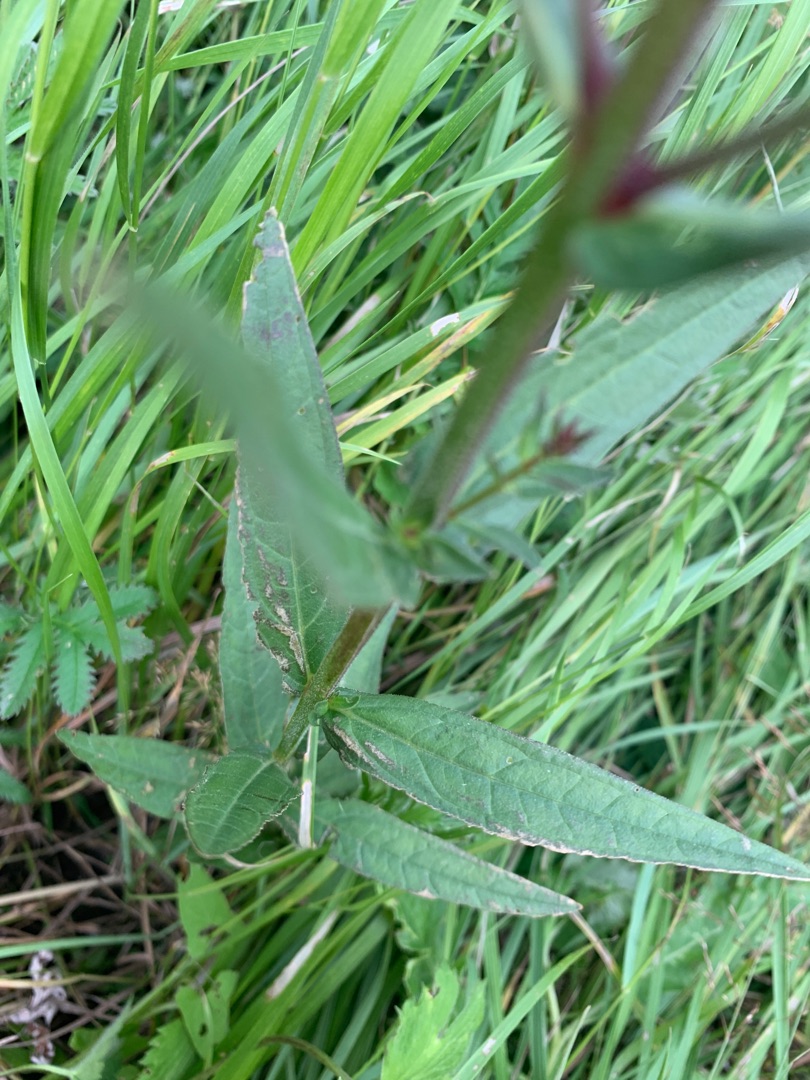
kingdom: Plantae
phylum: Tracheophyta
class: Magnoliopsida
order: Myrtales
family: Lythraceae
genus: Lythrum
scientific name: Lythrum salicaria
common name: Kattehale
